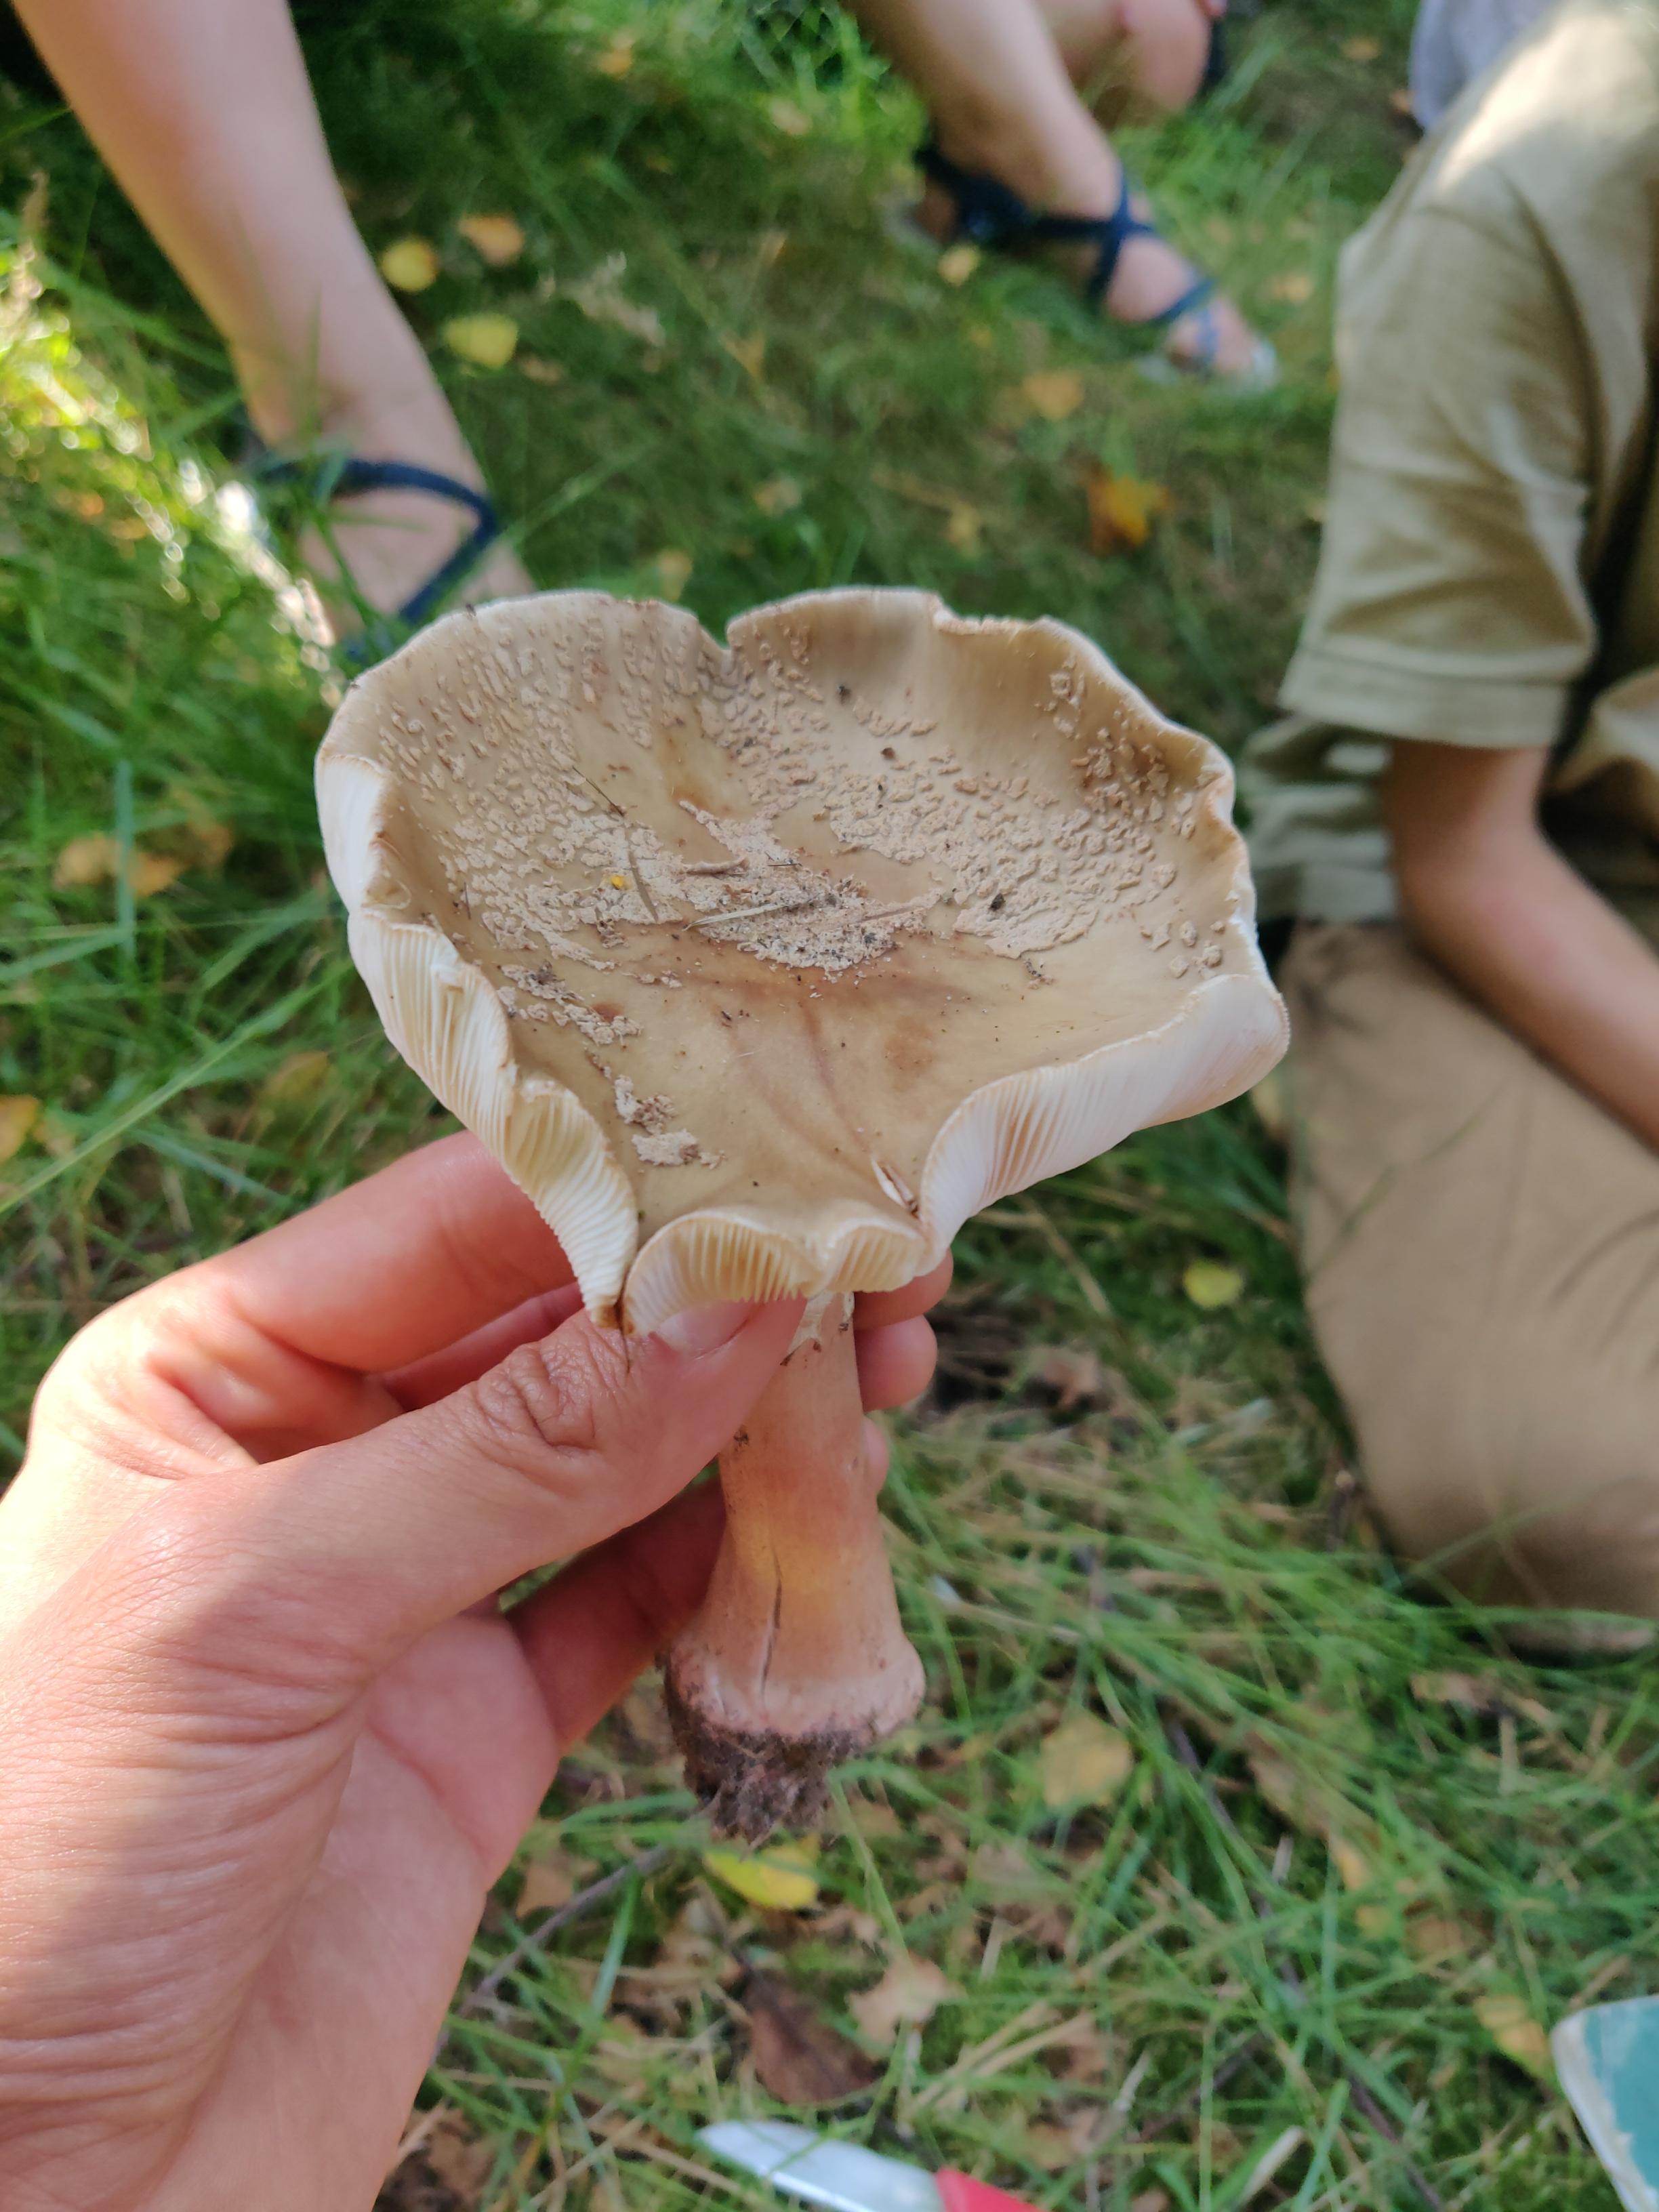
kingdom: Fungi
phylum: Basidiomycota
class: Agaricomycetes
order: Agaricales
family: Amanitaceae
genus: Amanita
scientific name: Amanita rubescens
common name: rødmende fluesvamp
